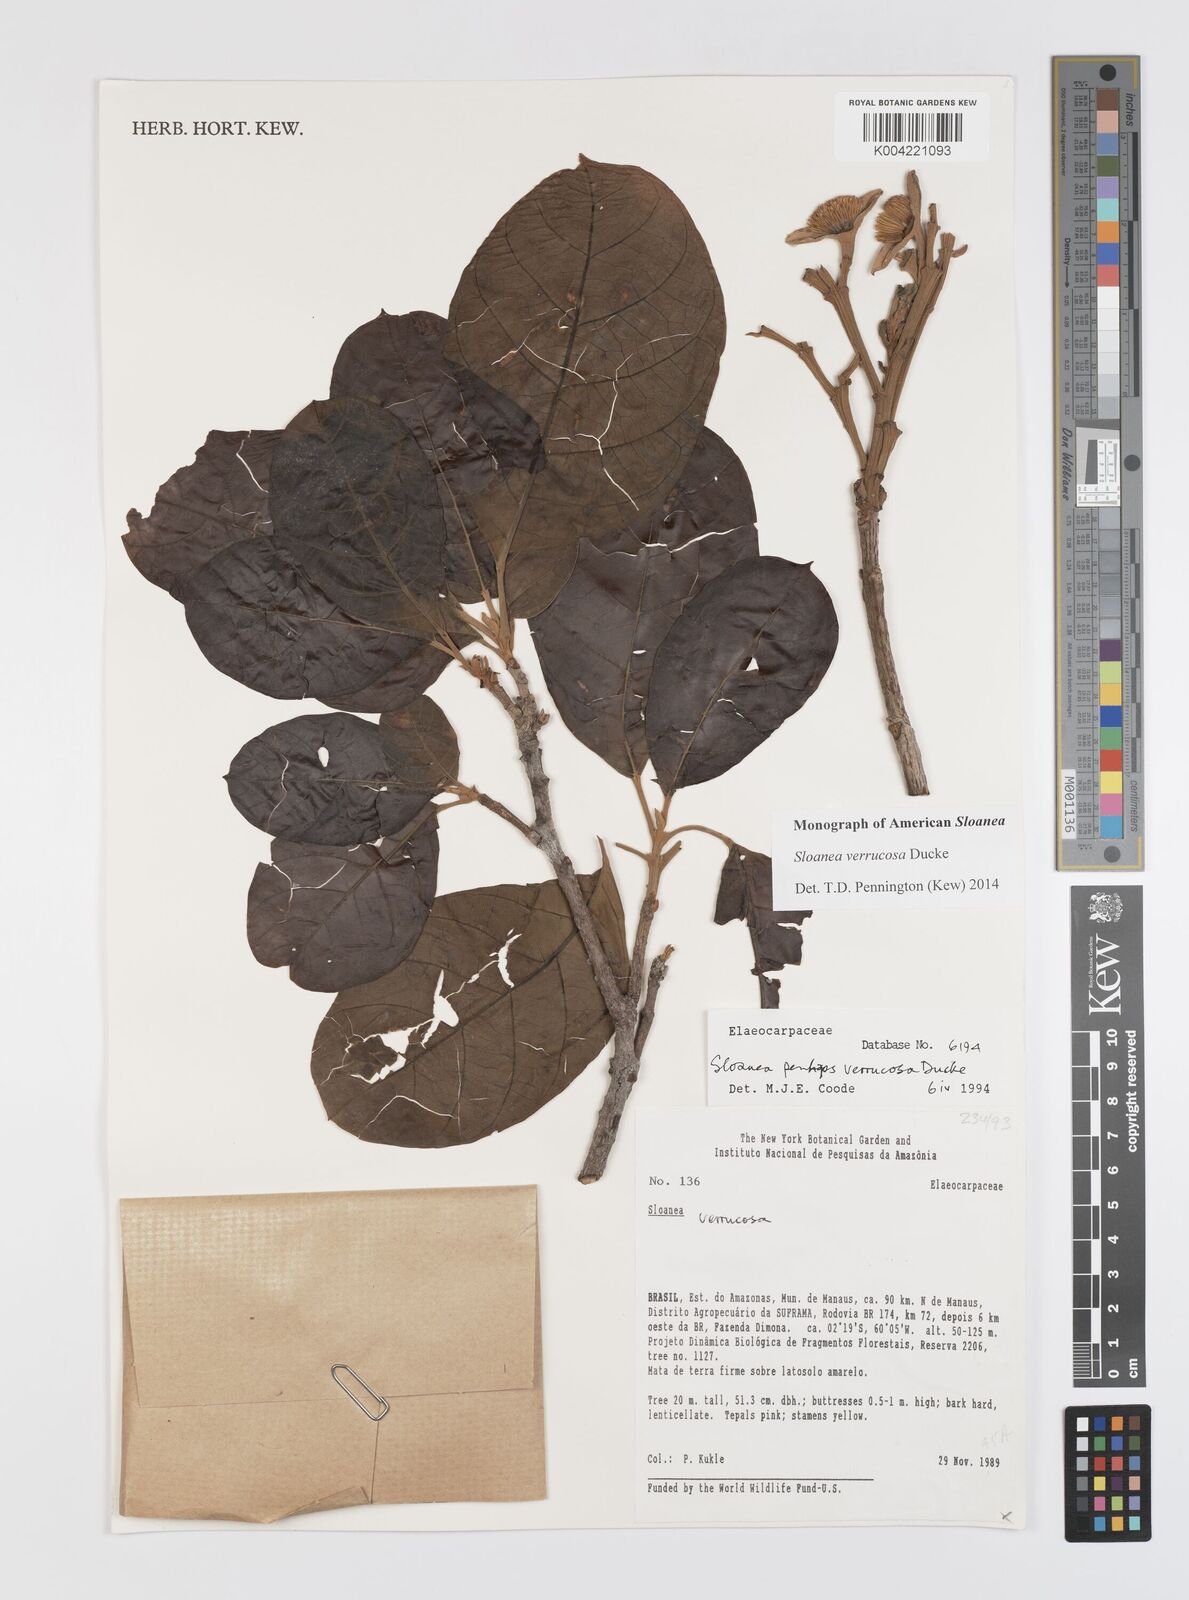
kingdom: Plantae
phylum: Tracheophyta
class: Magnoliopsida
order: Oxalidales
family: Elaeocarpaceae
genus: Sloanea
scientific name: Sloanea schomburgkii
